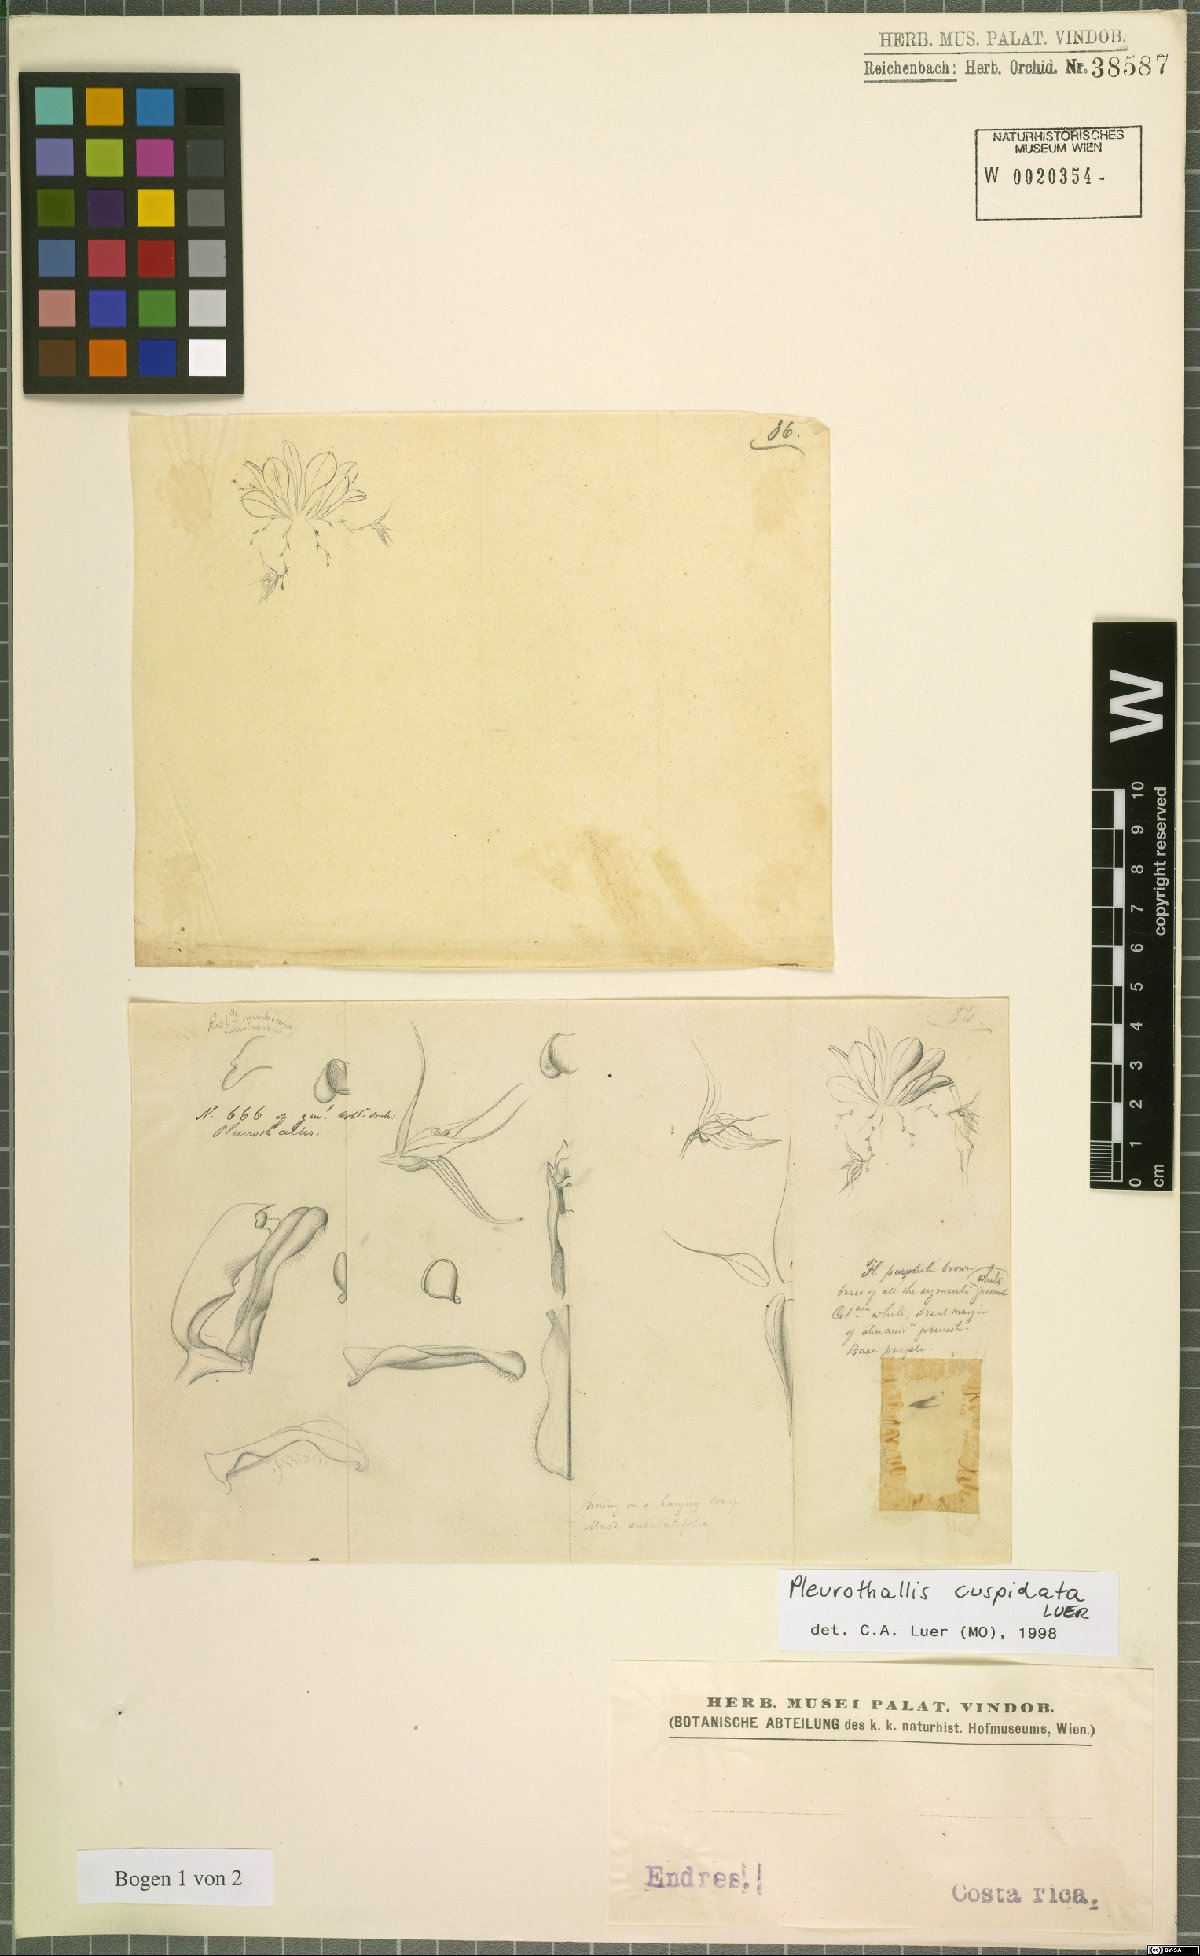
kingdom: Plantae
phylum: Tracheophyta
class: Liliopsida
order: Asparagales
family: Orchidaceae
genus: Anathallis
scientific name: Anathallis cuspidata
